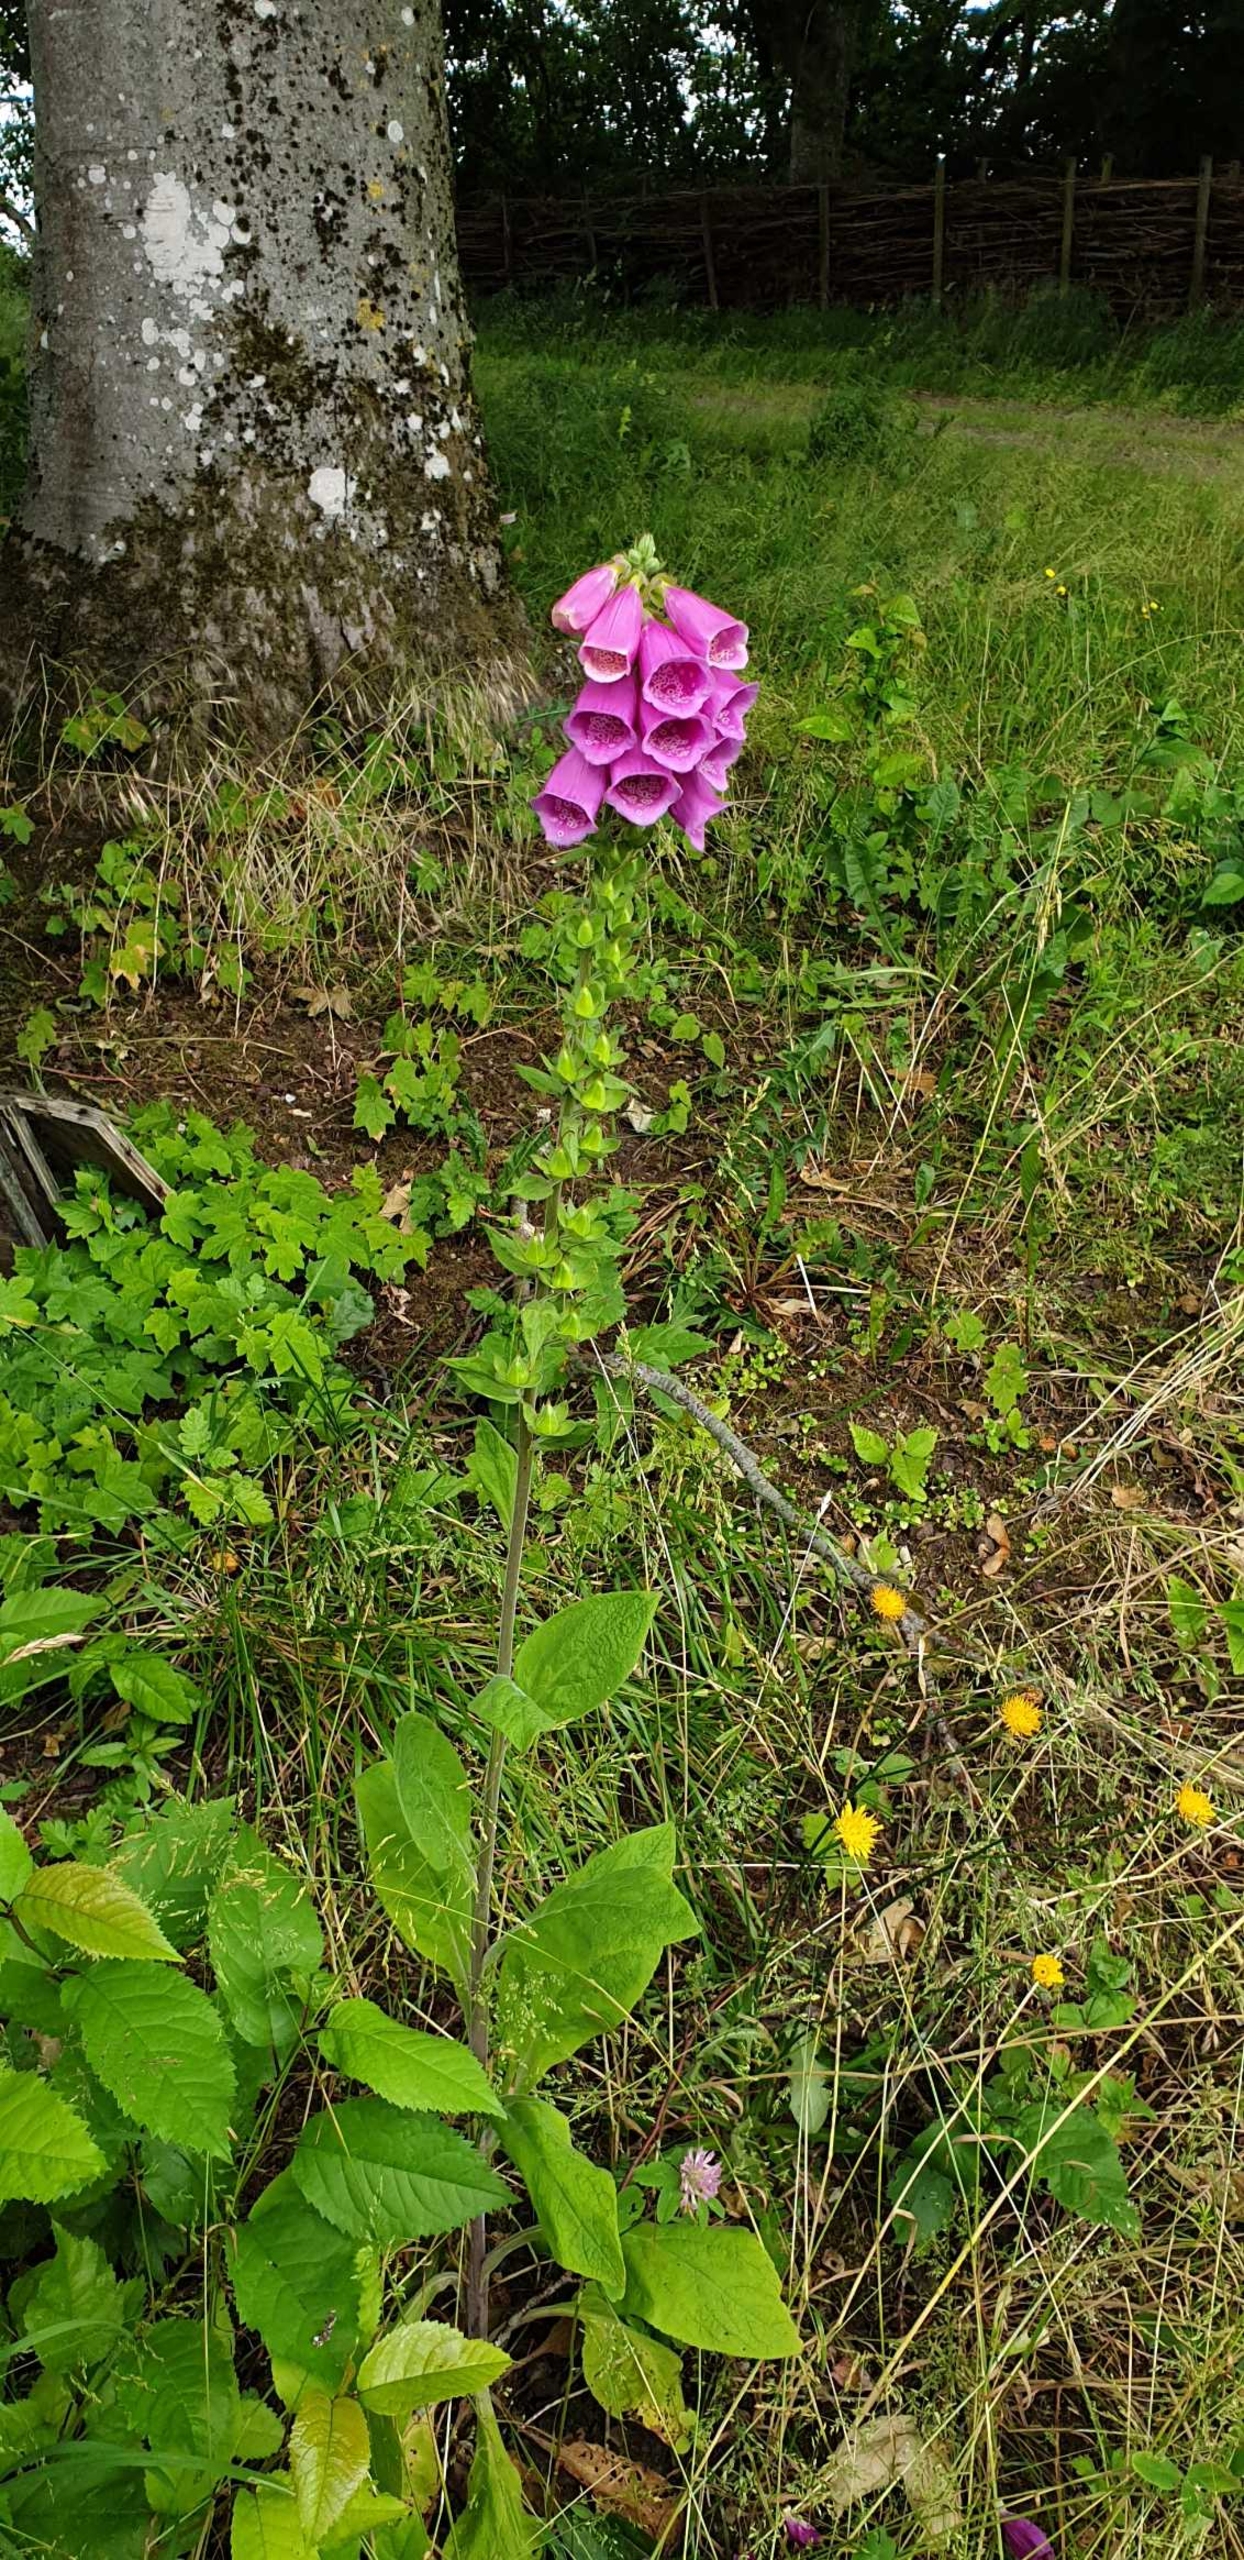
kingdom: Plantae
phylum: Tracheophyta
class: Magnoliopsida
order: Lamiales
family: Plantaginaceae
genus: Digitalis
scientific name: Digitalis purpurea
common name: Almindelig fingerbøl
